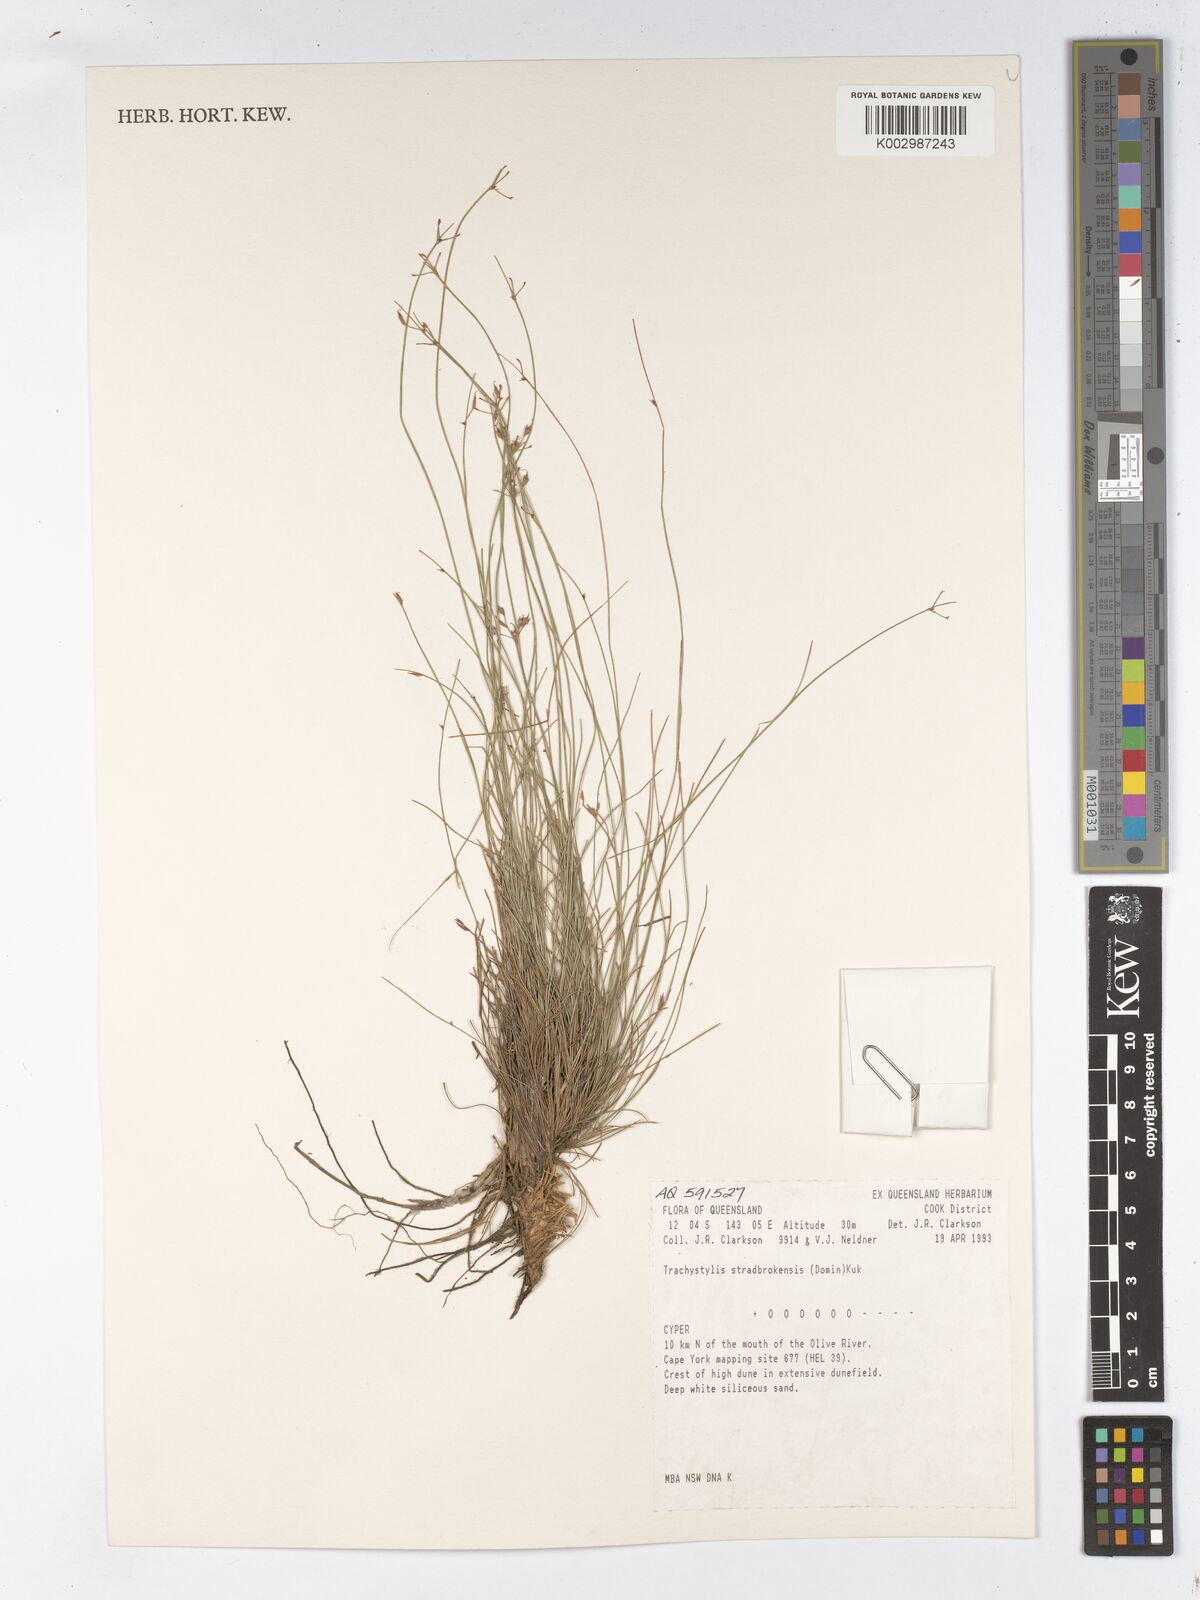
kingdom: Plantae
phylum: Tracheophyta
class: Liliopsida
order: Poales
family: Cyperaceae
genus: Trachystylis
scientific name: Trachystylis stradbrokensis
